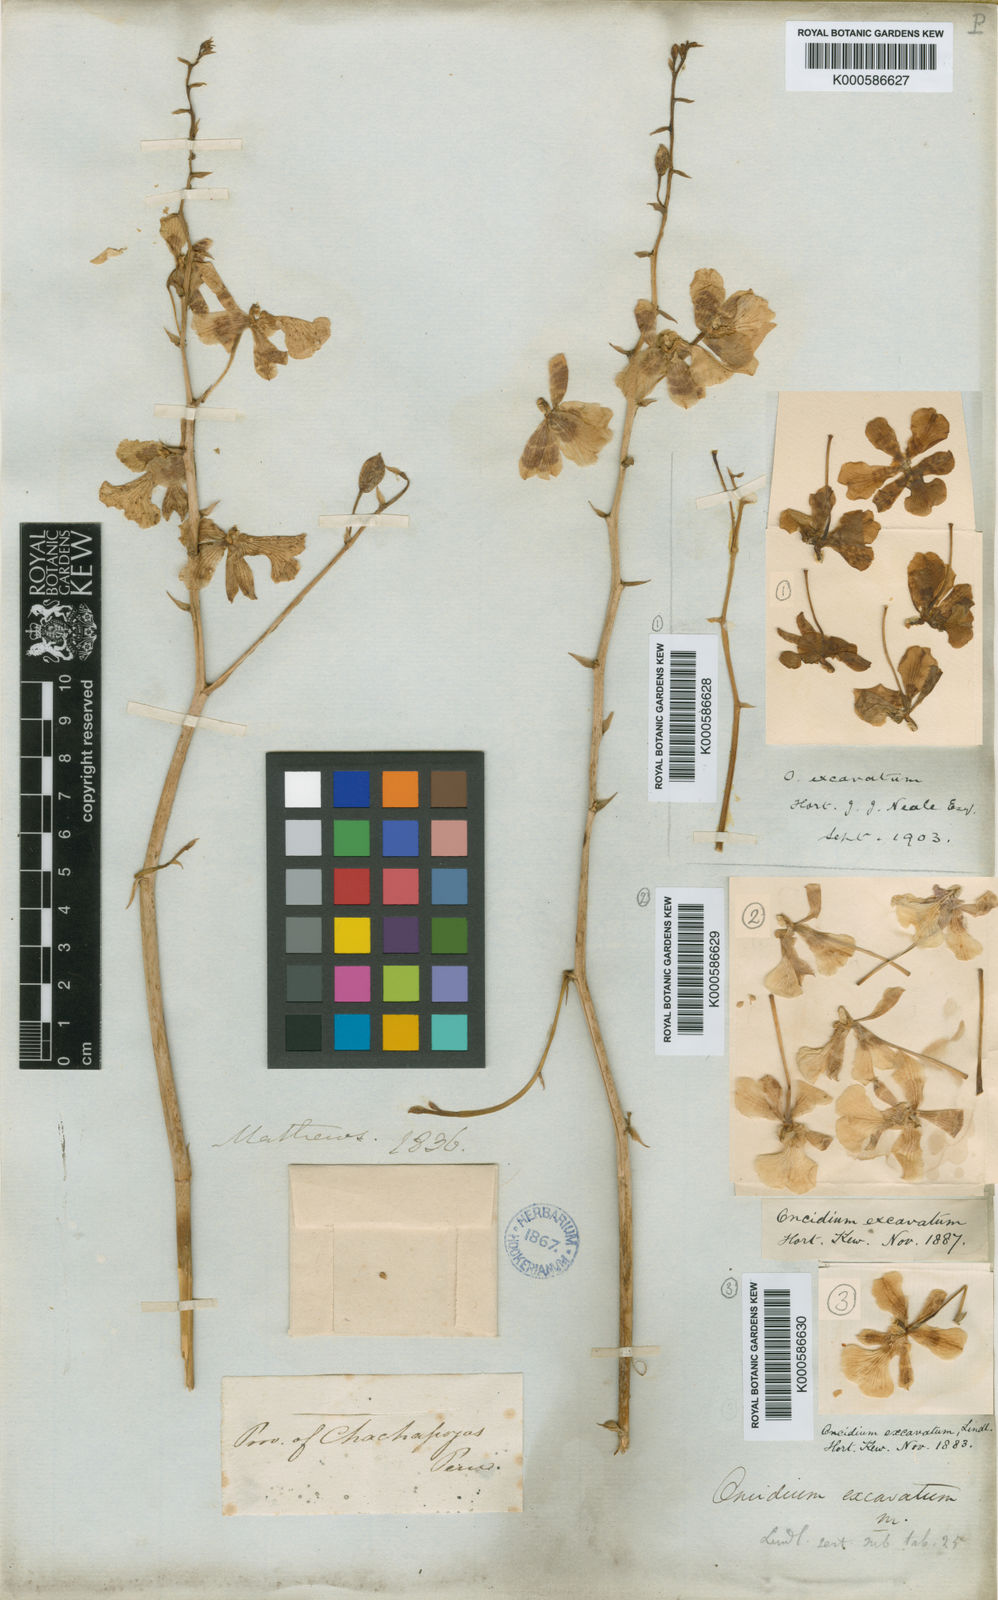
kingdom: Plantae
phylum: Tracheophyta
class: Liliopsida
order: Asparagales
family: Orchidaceae
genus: Vitekorchis
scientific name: Vitekorchis excavata
